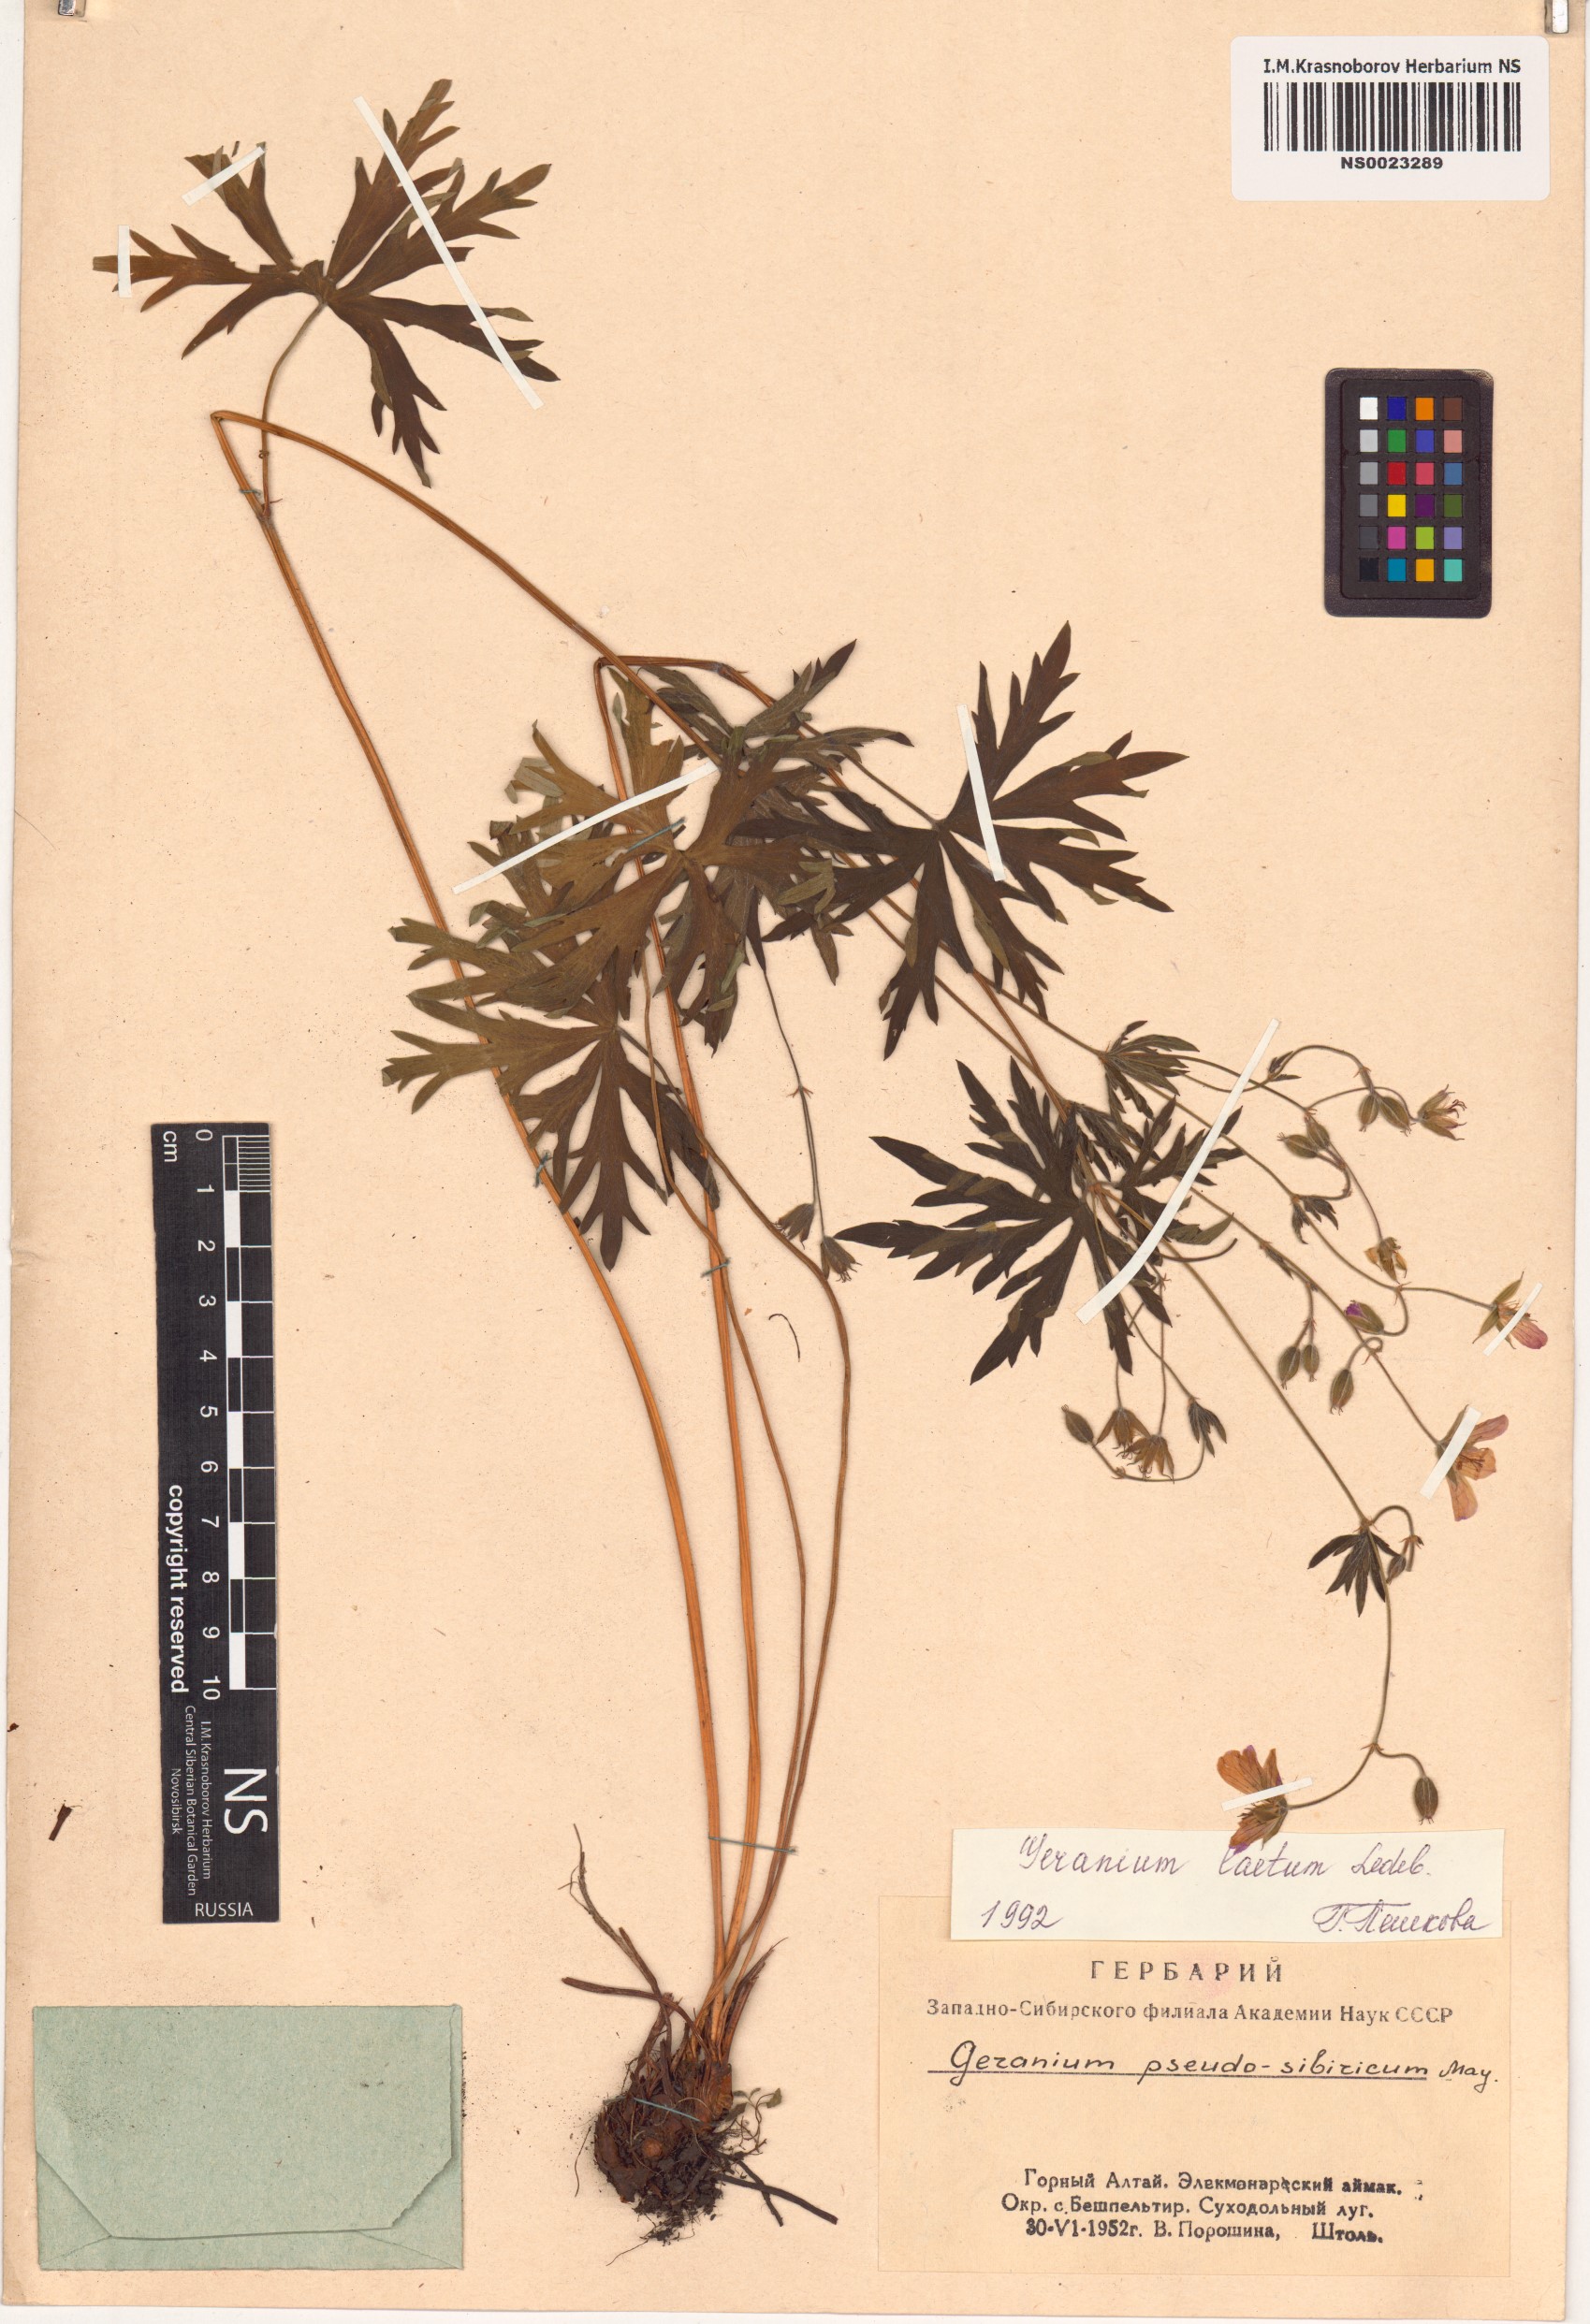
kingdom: Plantae
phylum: Tracheophyta
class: Magnoliopsida
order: Geraniales
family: Geraniaceae
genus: Geranium
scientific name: Geranium pseudosibiricum
